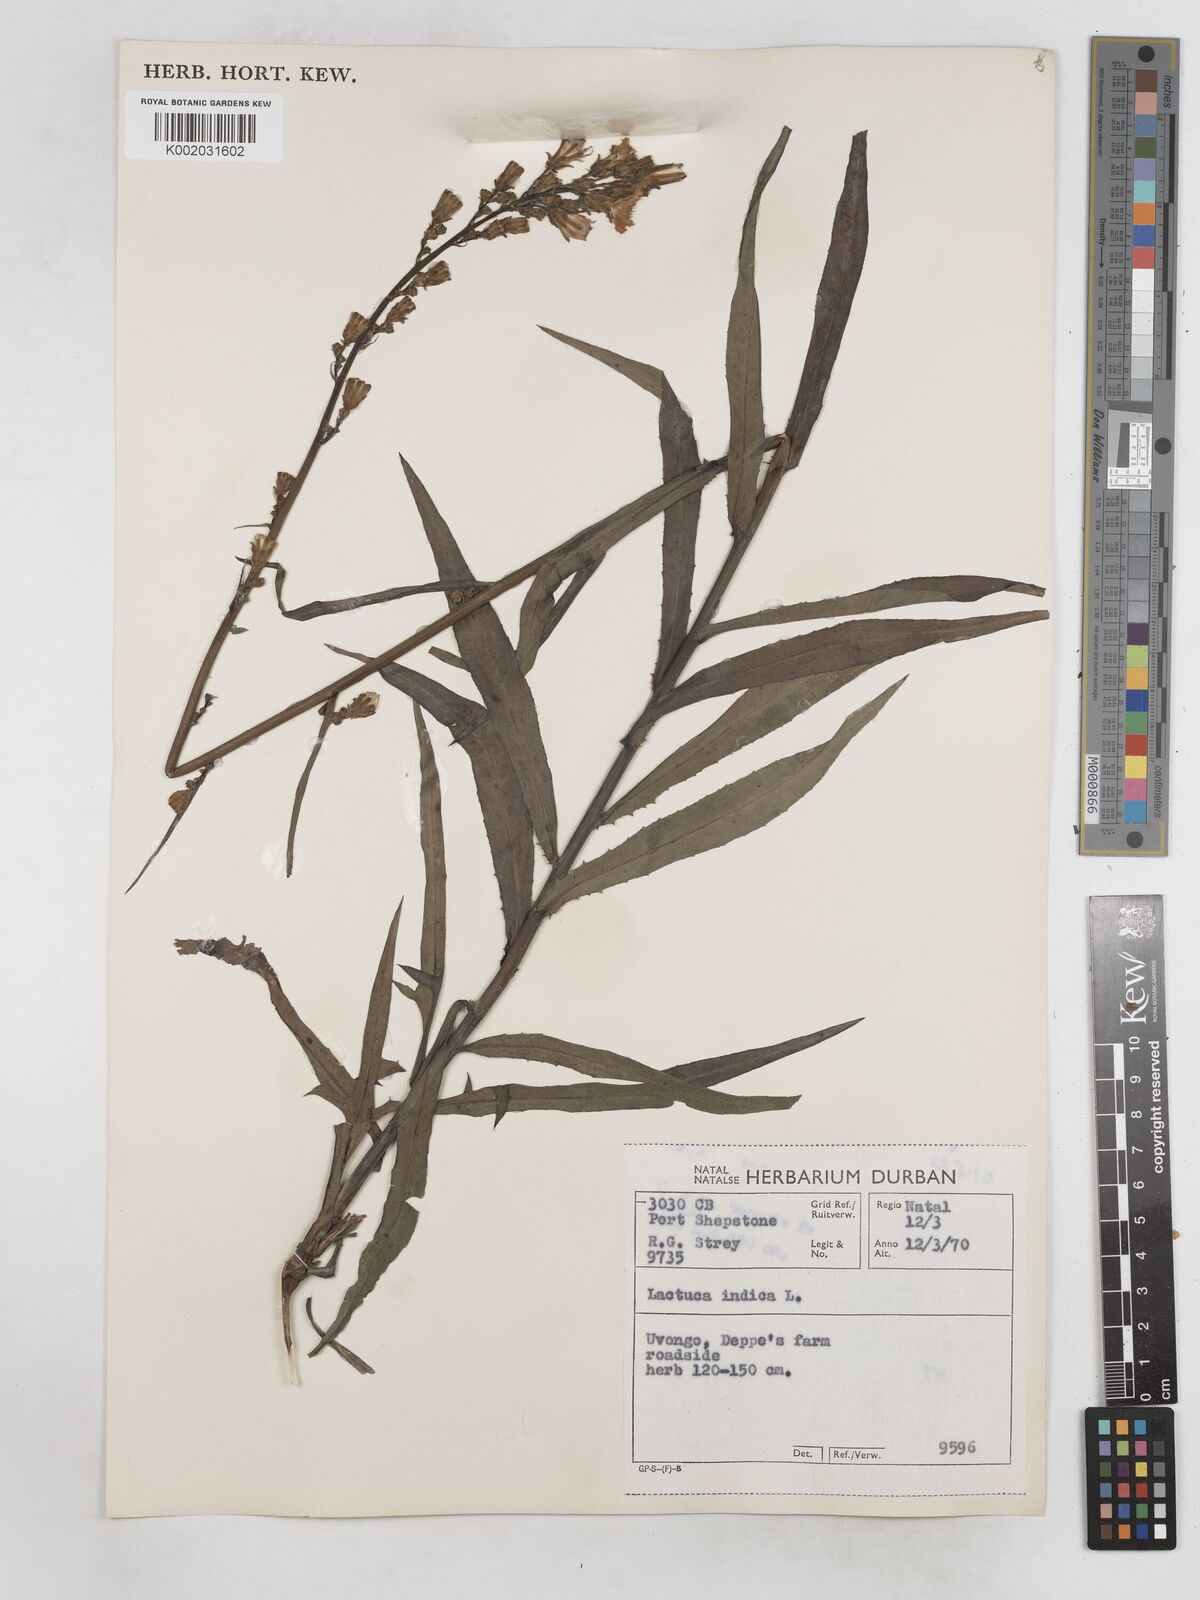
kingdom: Plantae
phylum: Tracheophyta
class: Magnoliopsida
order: Asterales
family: Asteraceae
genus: Lactuca
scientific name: Lactuca indica
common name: Wild lettuce
